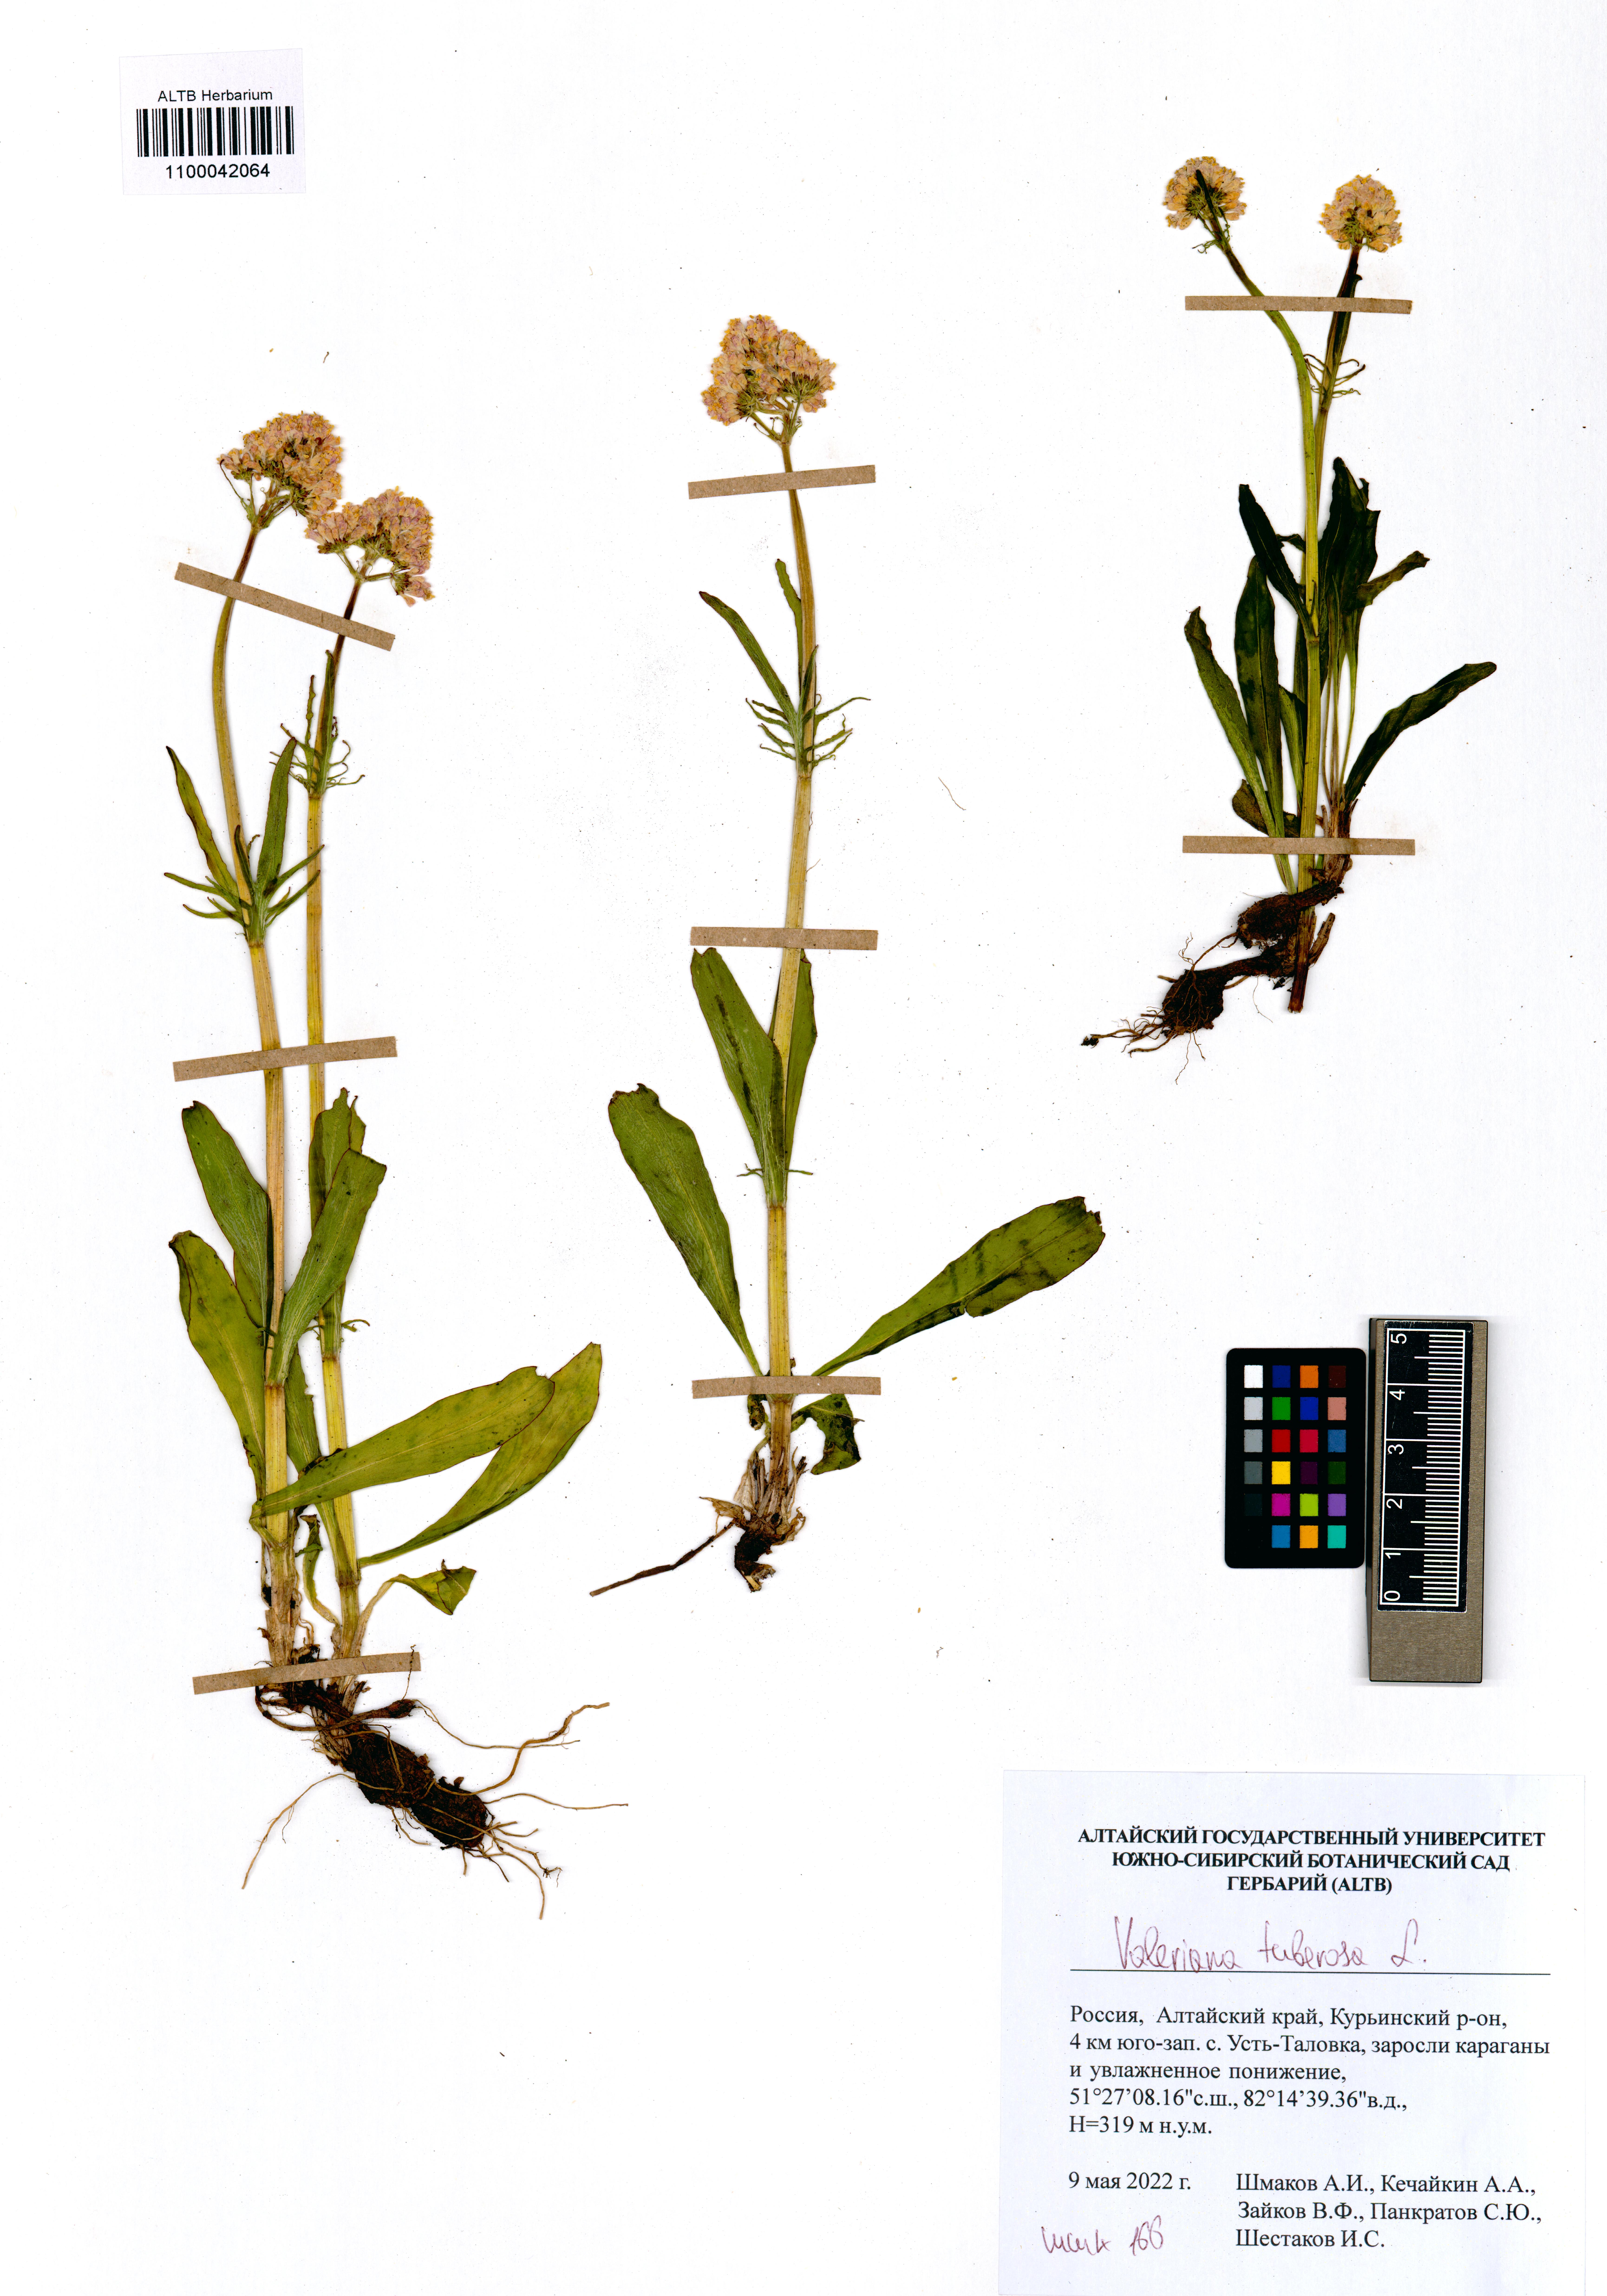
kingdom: Plantae
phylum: Tracheophyta
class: Magnoliopsida
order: Dipsacales
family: Caprifoliaceae
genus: Valeriana
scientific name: Valeriana tuberosa
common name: Tuberous valerian
